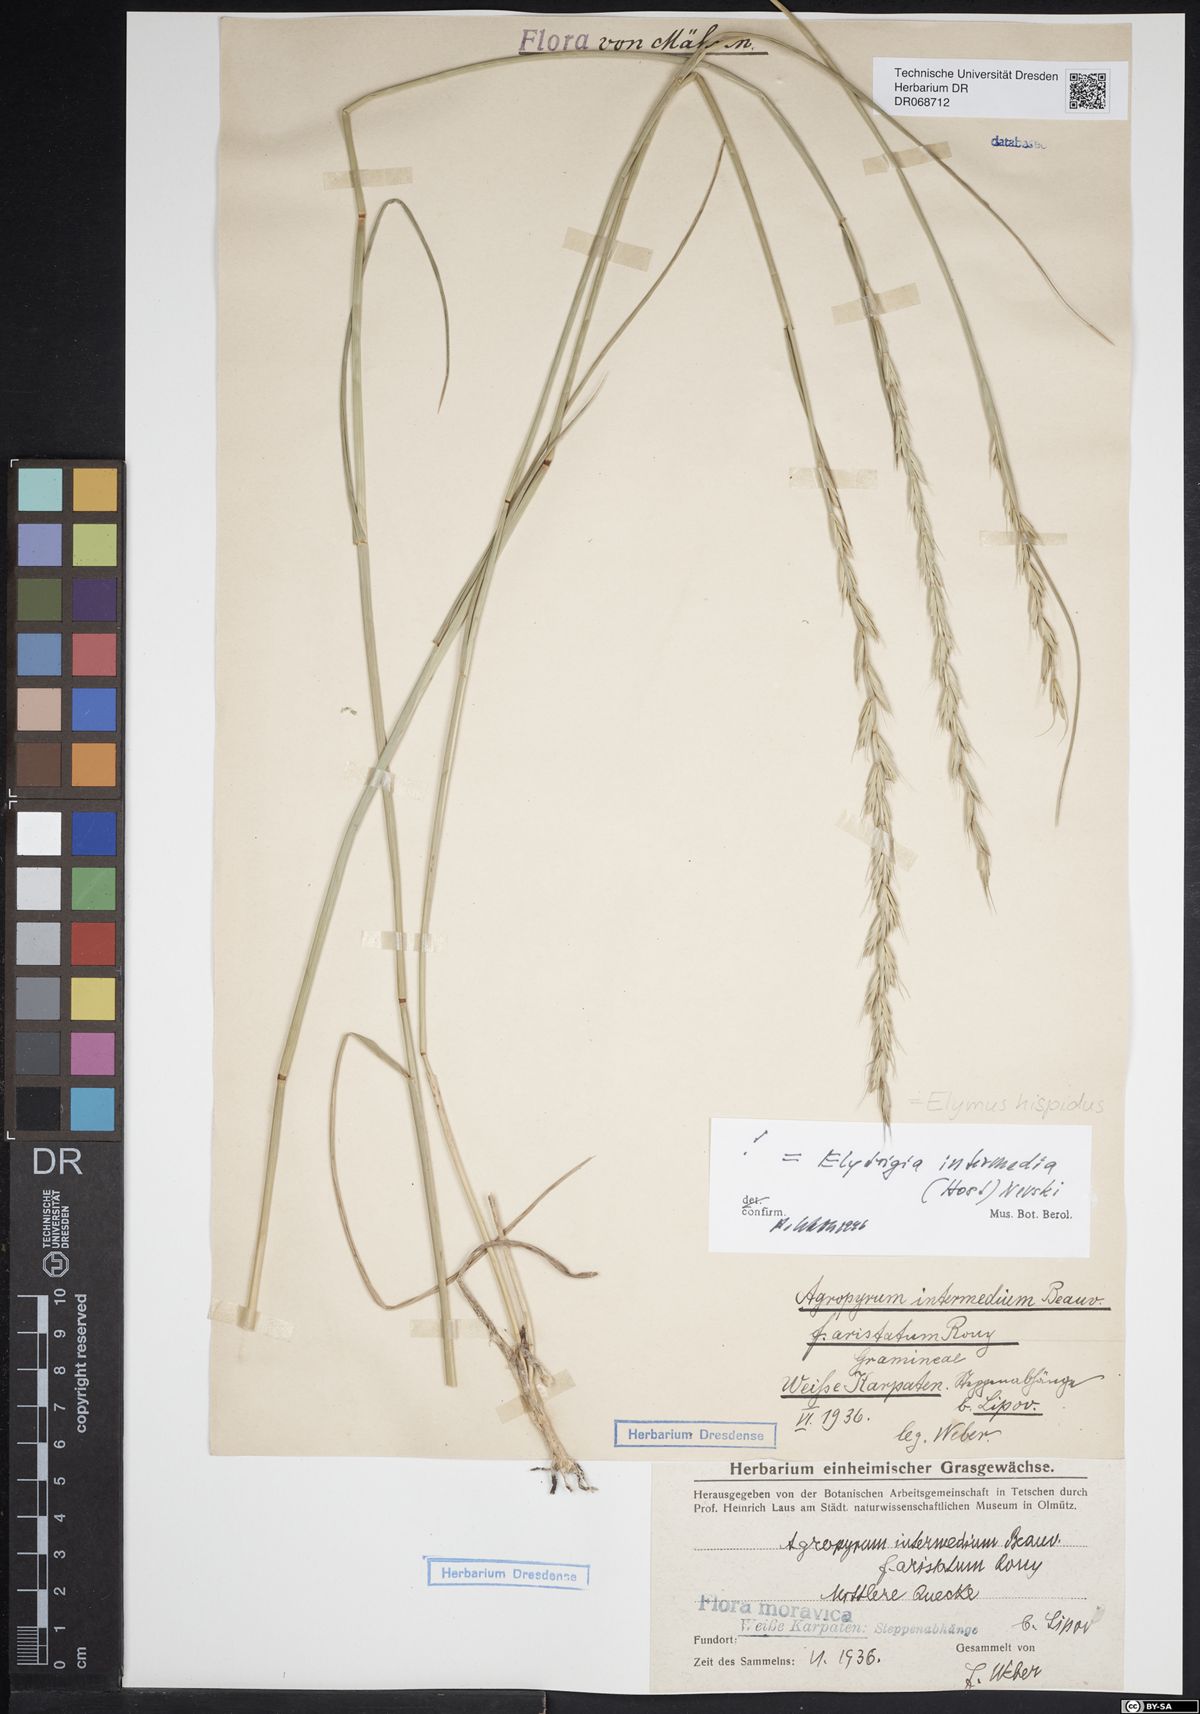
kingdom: Plantae
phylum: Tracheophyta
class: Liliopsida
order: Poales
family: Poaceae
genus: Thinopyrum
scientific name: Thinopyrum intermedium
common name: Intermediate wheatgrass
